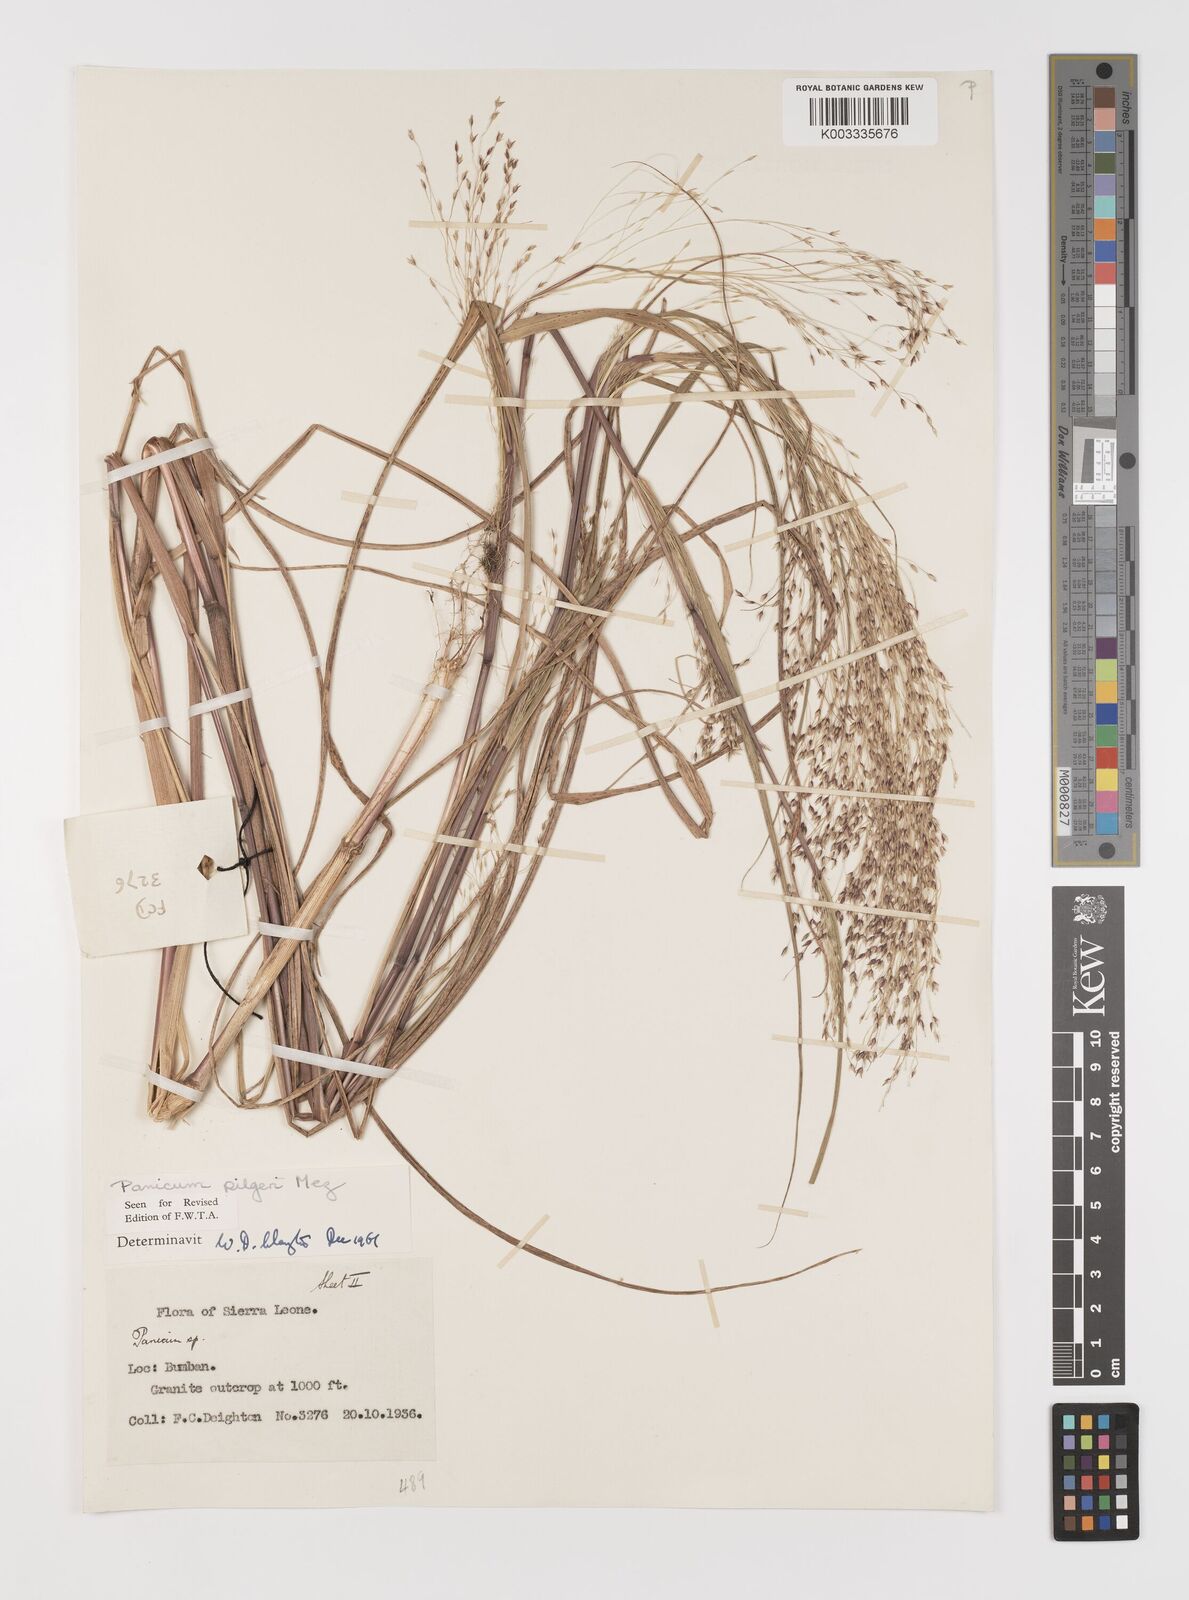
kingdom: Plantae
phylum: Tracheophyta
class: Liliopsida
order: Poales
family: Poaceae
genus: Panicum
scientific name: Panicum
